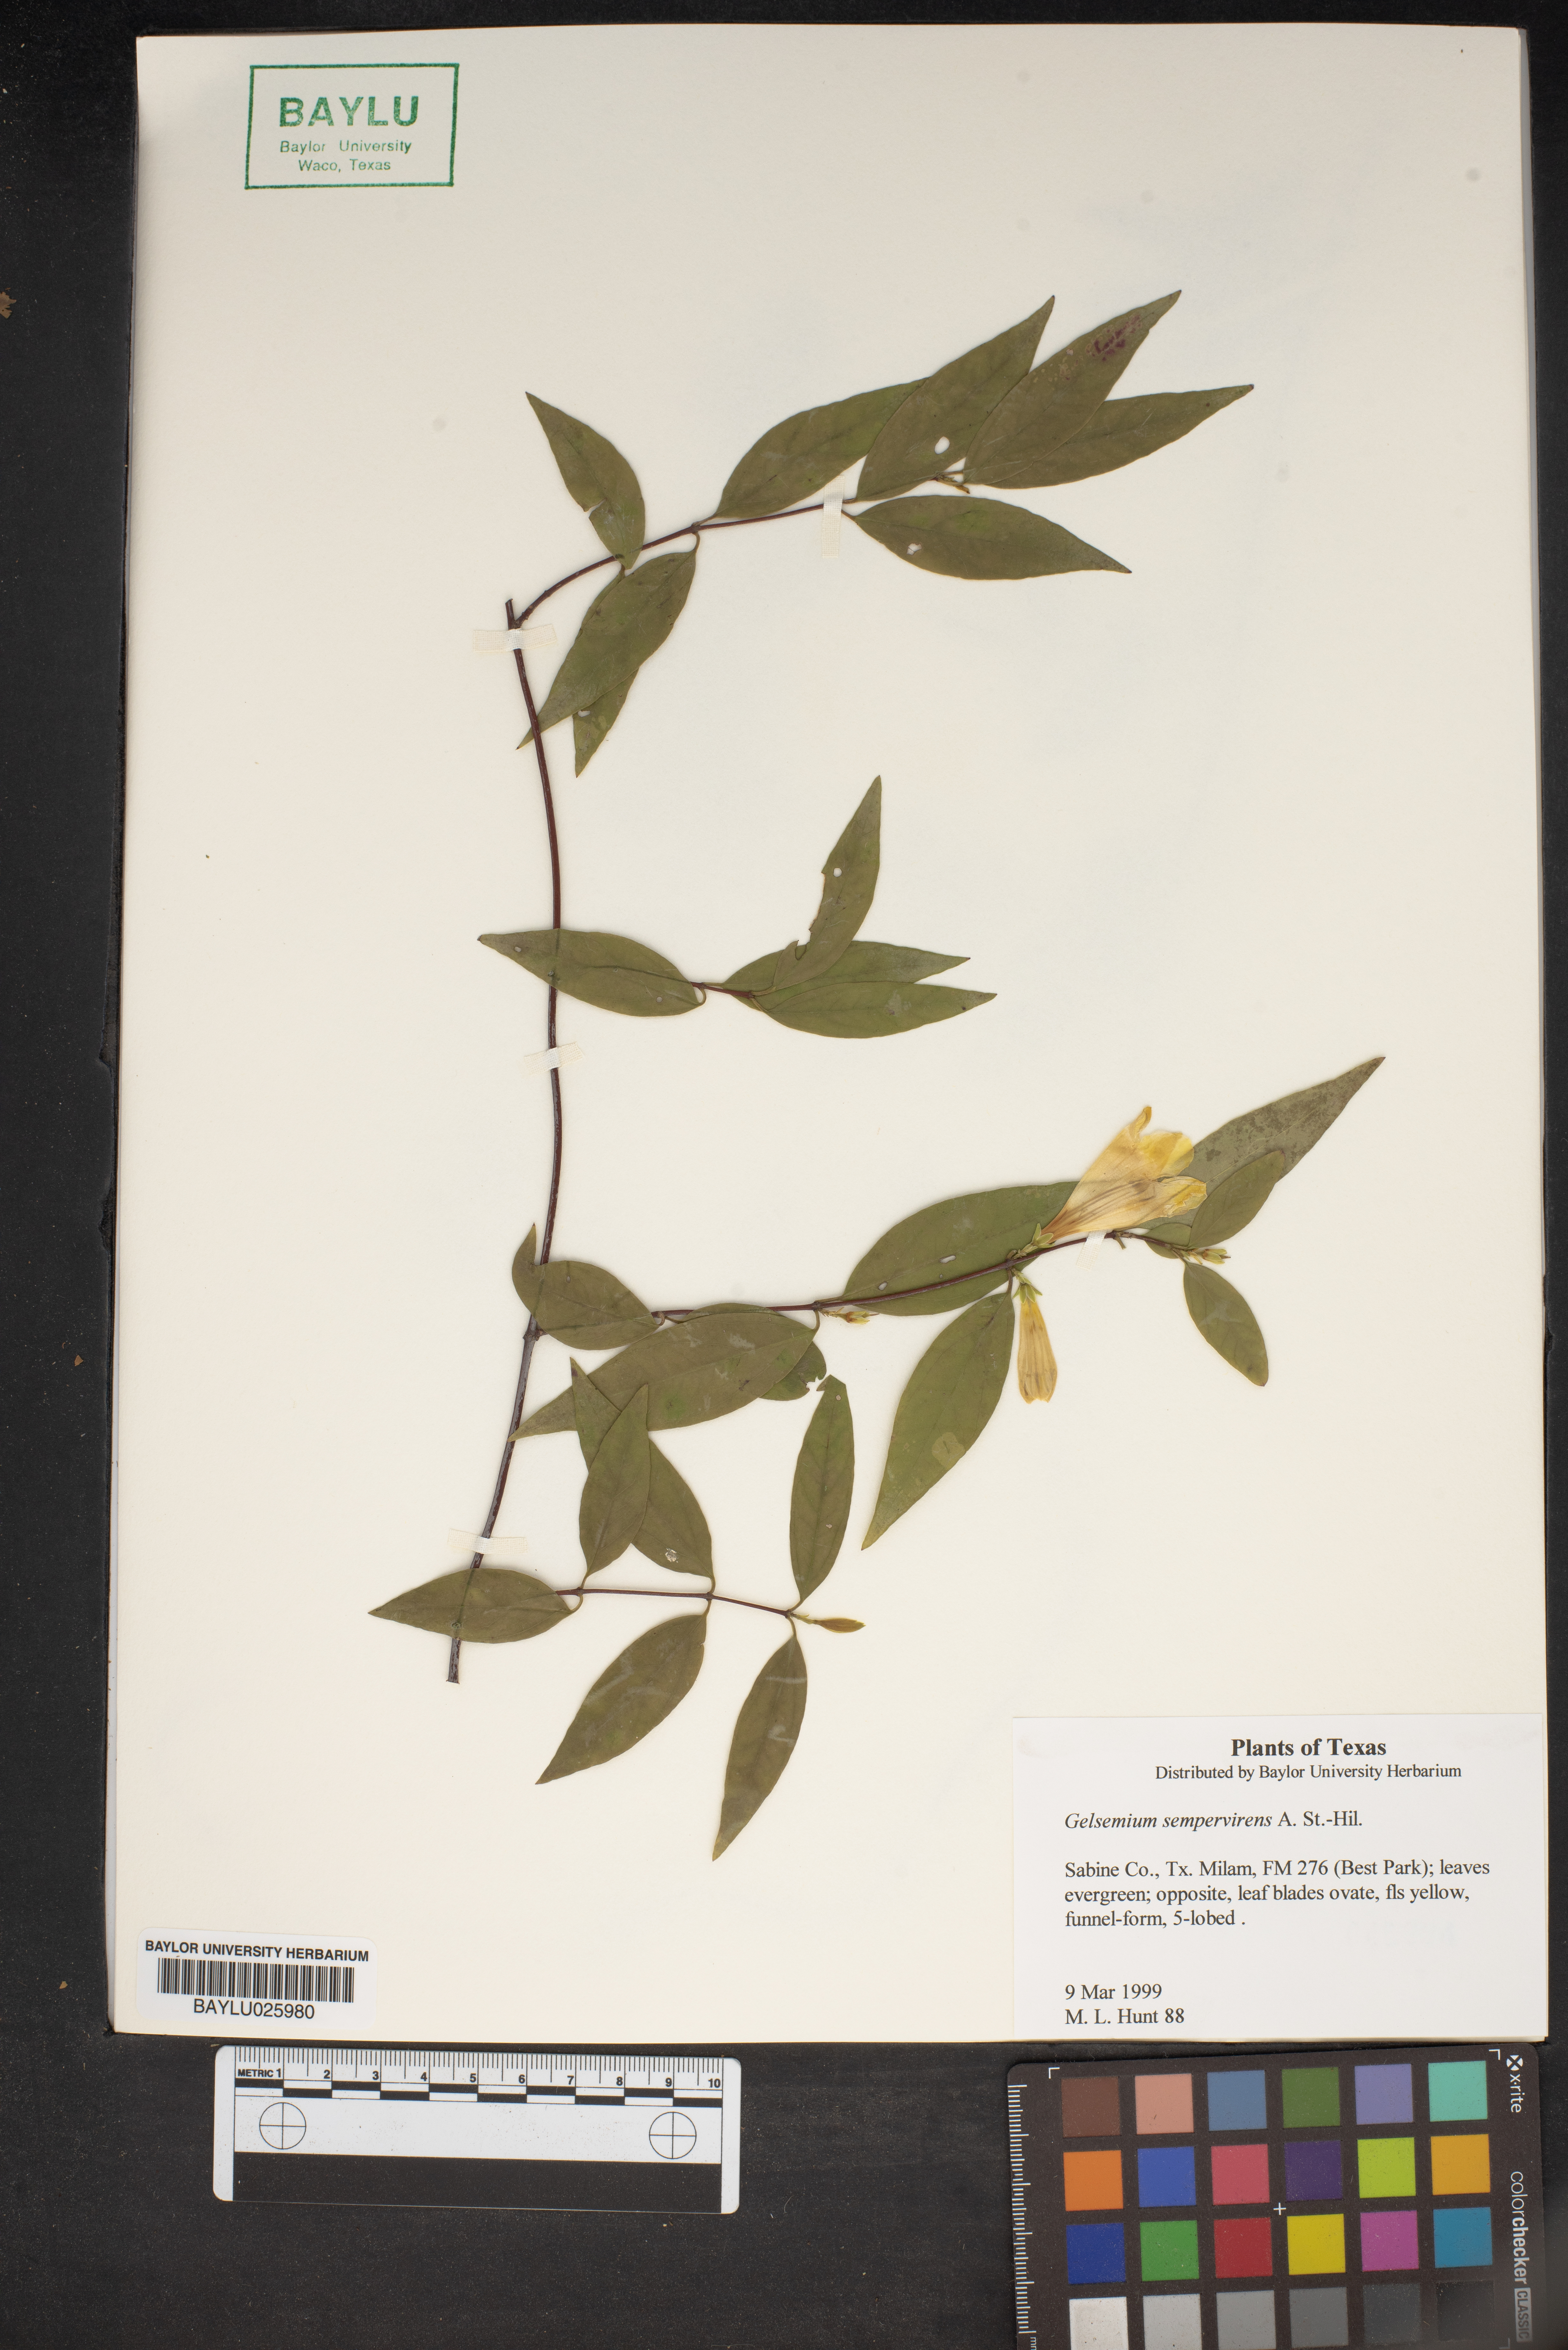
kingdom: Plantae
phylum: Tracheophyta
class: Magnoliopsida
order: Gentianales
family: Gelsemiaceae
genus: Gelsemium
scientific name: Gelsemium sempervirens
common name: Carolina-jasmine
